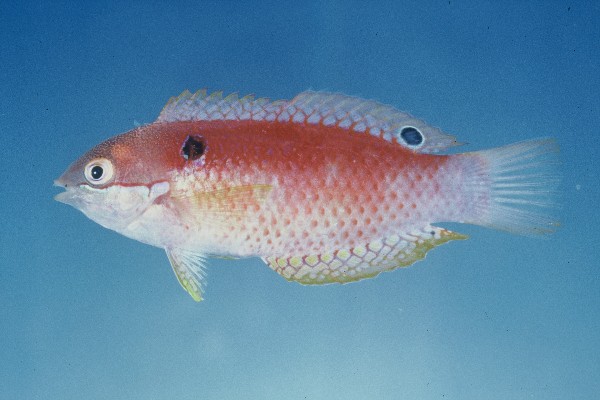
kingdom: Animalia
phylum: Chordata
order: Perciformes
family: Labridae
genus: Macropharyngodon
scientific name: Macropharyngodon vivienae
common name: Madagascar wrasse
